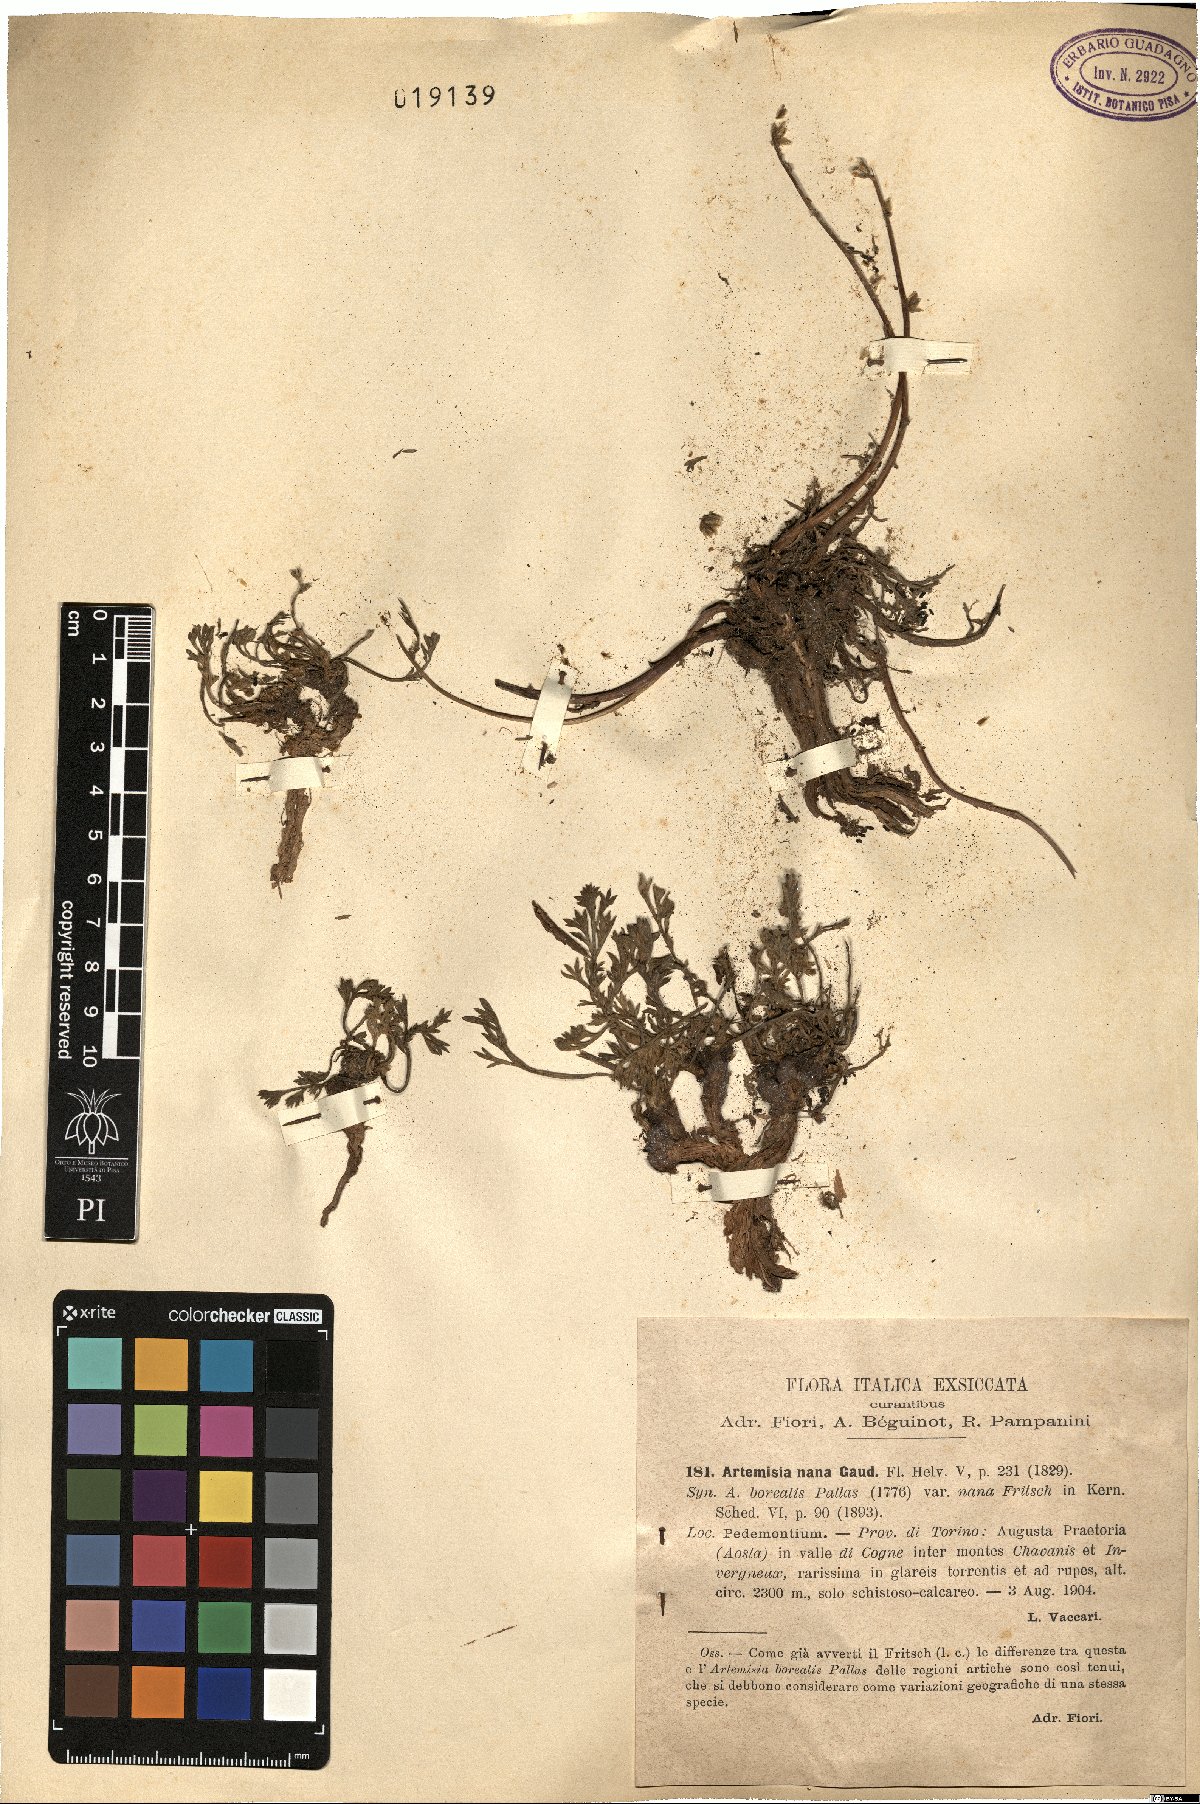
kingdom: Plantae
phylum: Tracheophyta
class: Magnoliopsida
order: Asterales
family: Asteraceae
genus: Artemisia
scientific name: Artemisia borealis
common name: Boreal sage
